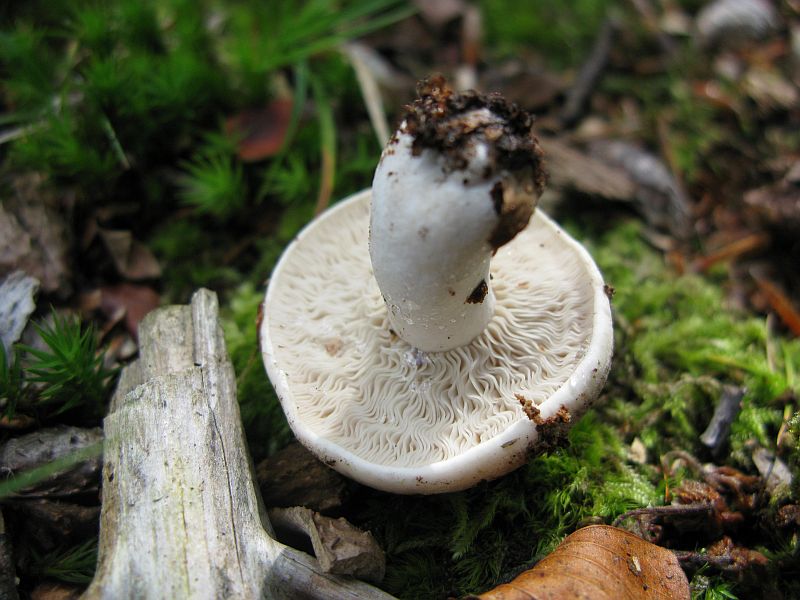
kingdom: Fungi
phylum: Basidiomycota
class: Agaricomycetes
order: Russulales
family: Russulaceae
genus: Russula
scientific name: Russula acrifolia
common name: skarpbladet skørhat
